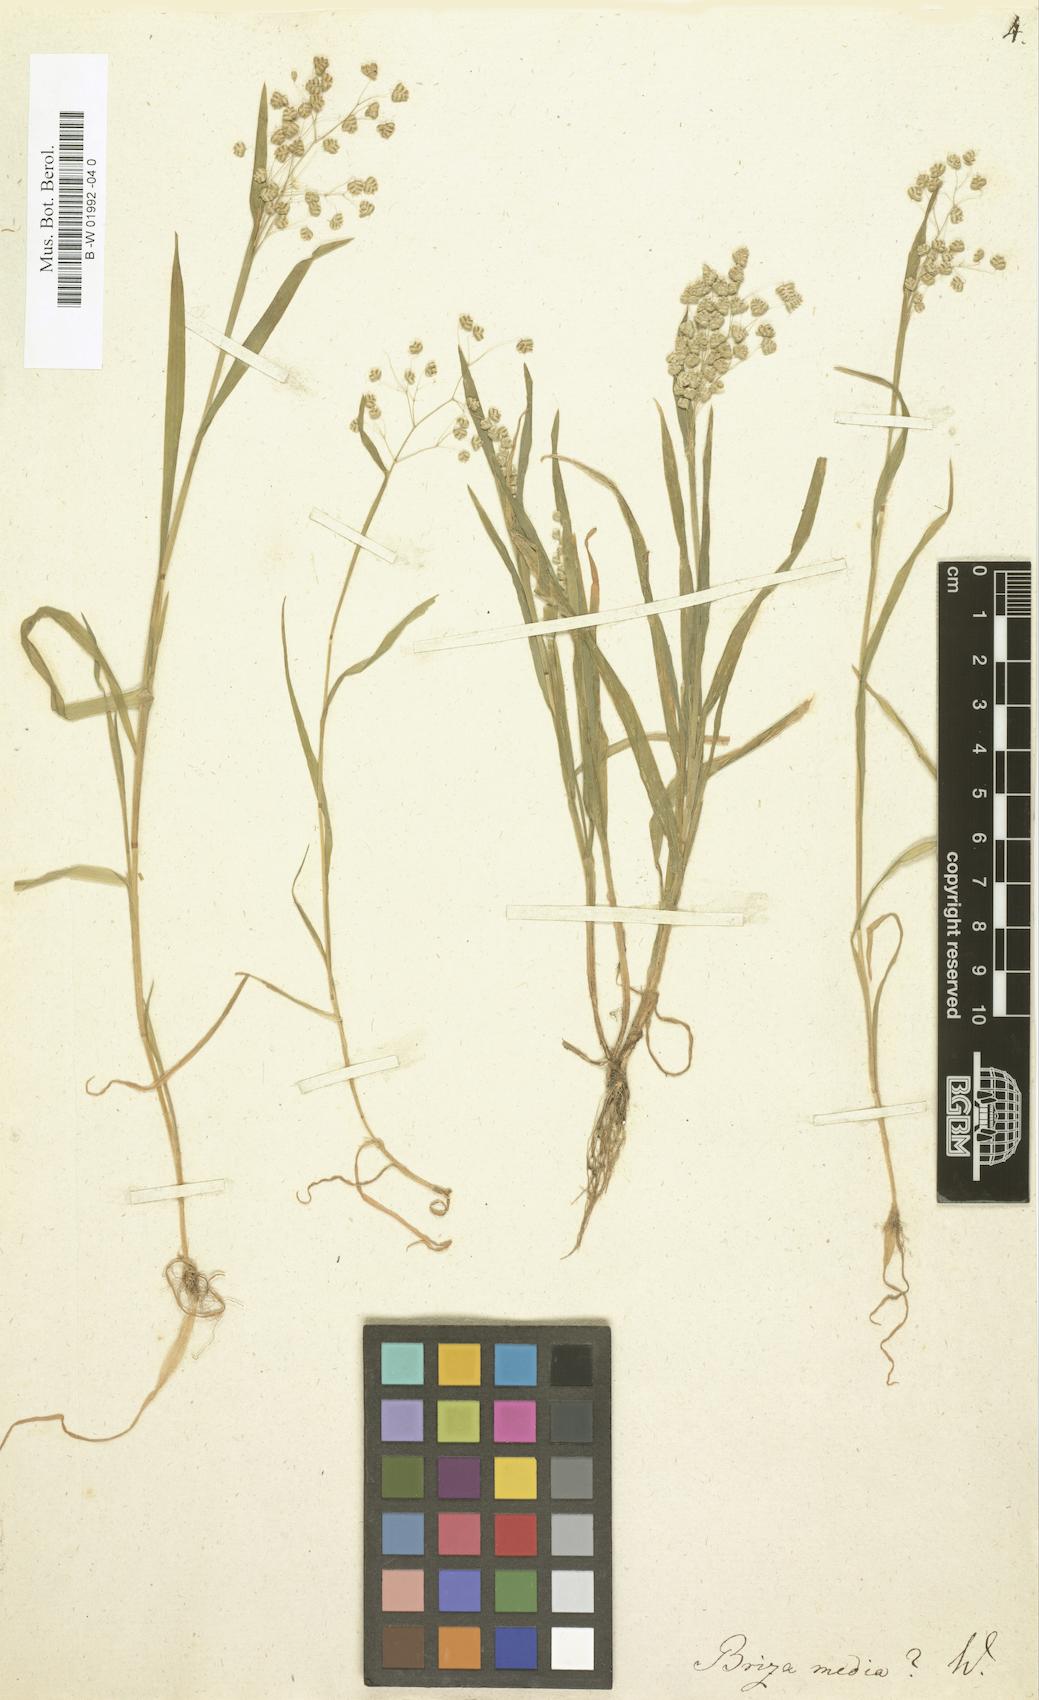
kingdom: Plantae
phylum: Tracheophyta
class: Liliopsida
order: Poales
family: Poaceae
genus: Briza
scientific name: Briza media
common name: Quaking grass
